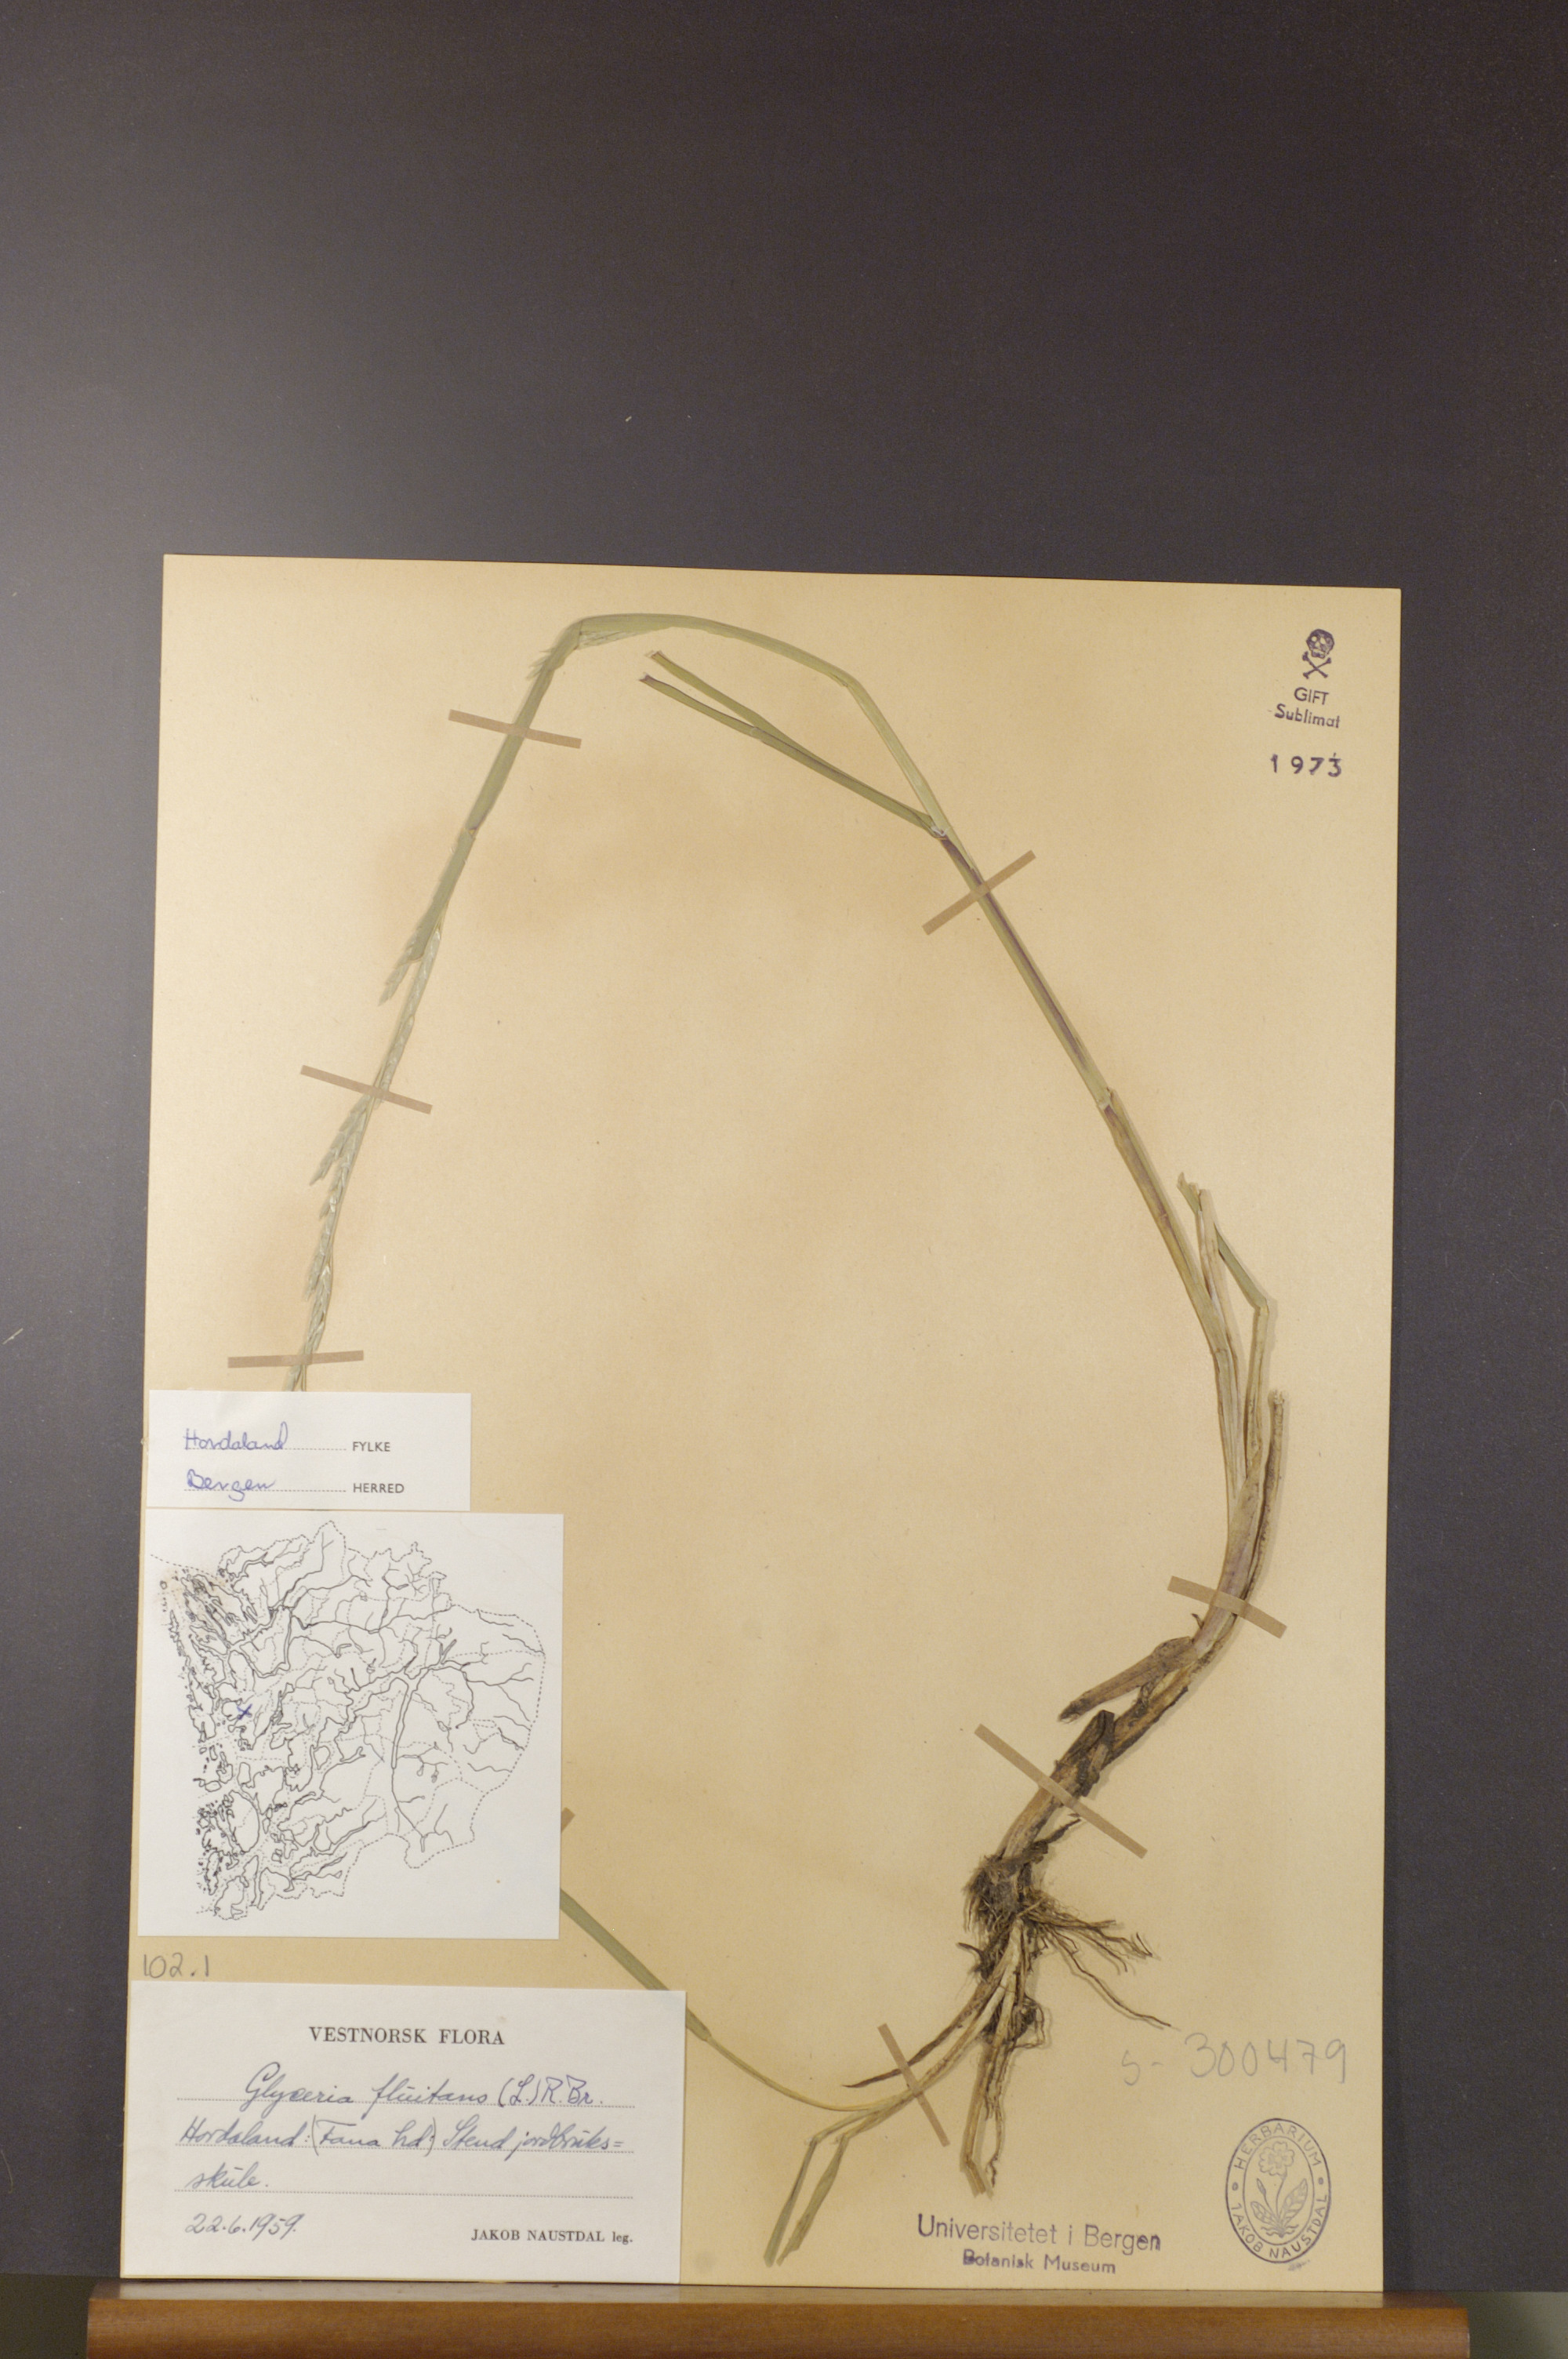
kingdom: Plantae
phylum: Tracheophyta
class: Liliopsida
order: Poales
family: Poaceae
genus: Glyceria
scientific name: Glyceria fluitans
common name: Floating sweet-grass
